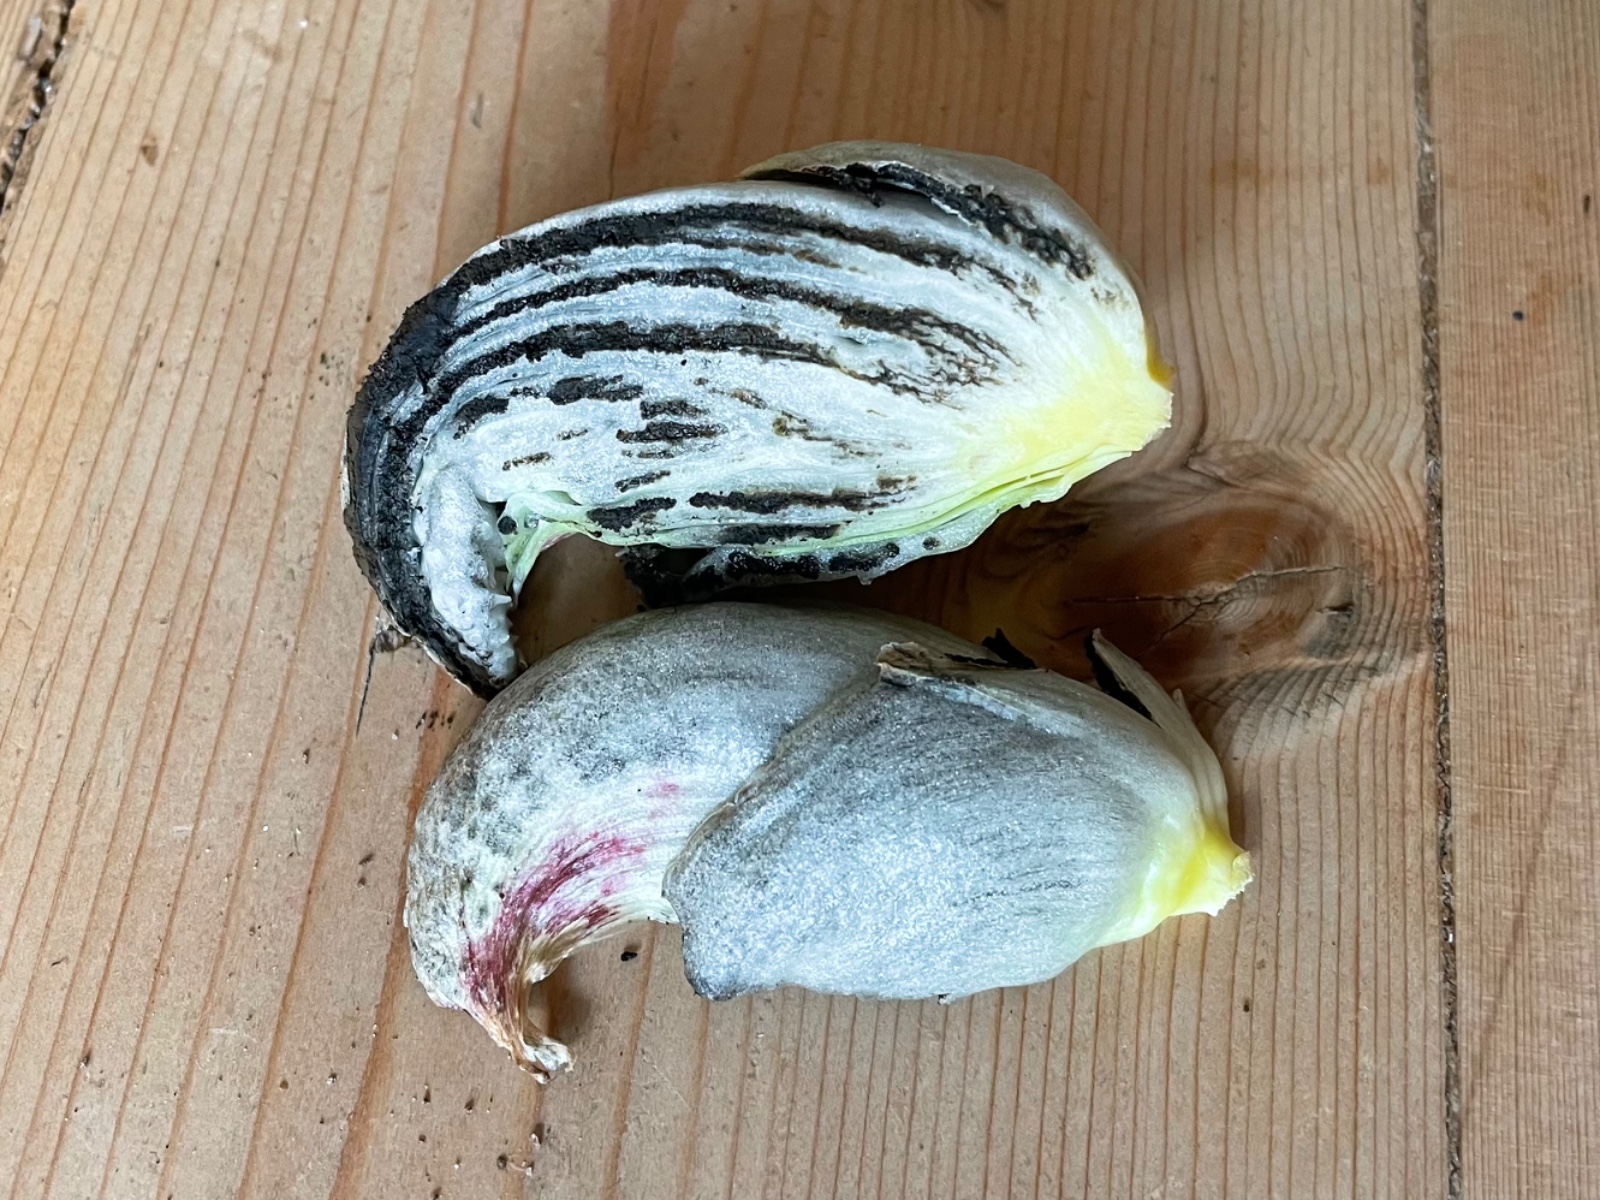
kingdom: Fungi
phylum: Basidiomycota
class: Ustilaginomycetes
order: Ustilaginales
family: Ustilaginaceae
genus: Mycosarcoma
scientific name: Mycosarcoma maydis
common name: majs-brand
